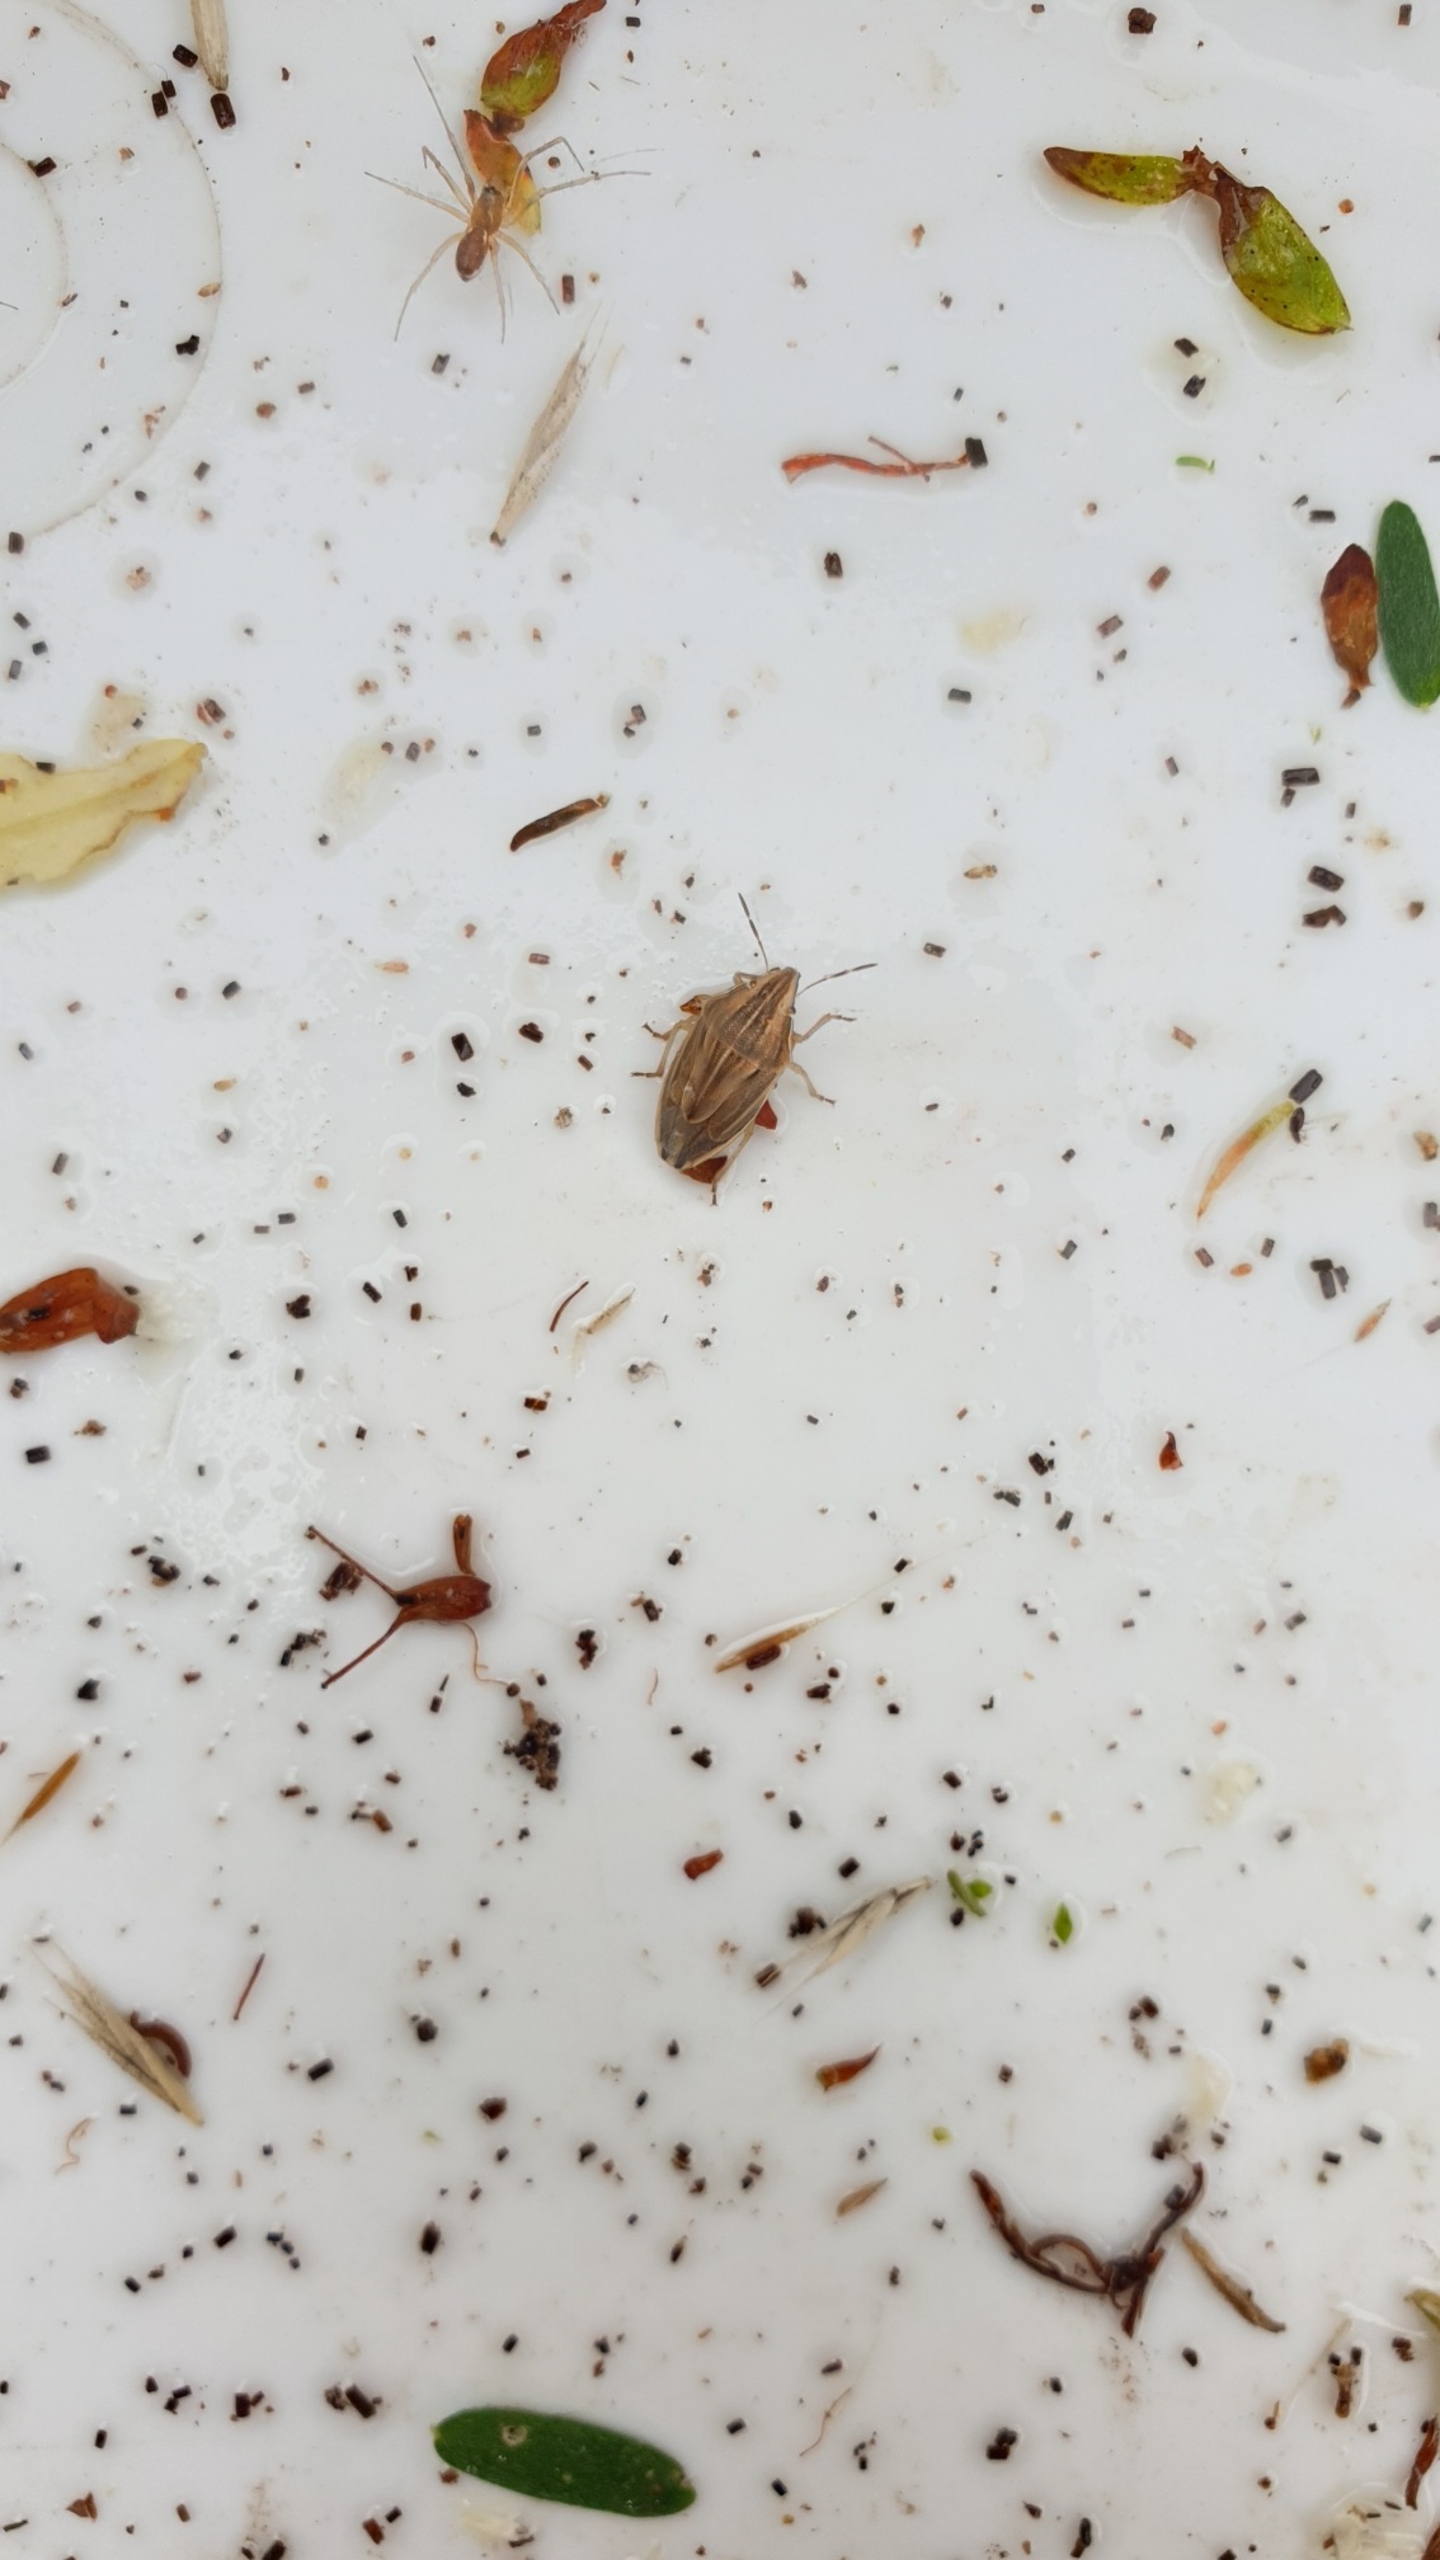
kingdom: Animalia
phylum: Arthropoda
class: Insecta
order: Hemiptera
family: Pentatomidae
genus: Aelia
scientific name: Aelia acuminata
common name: Almindelig bispetæge
